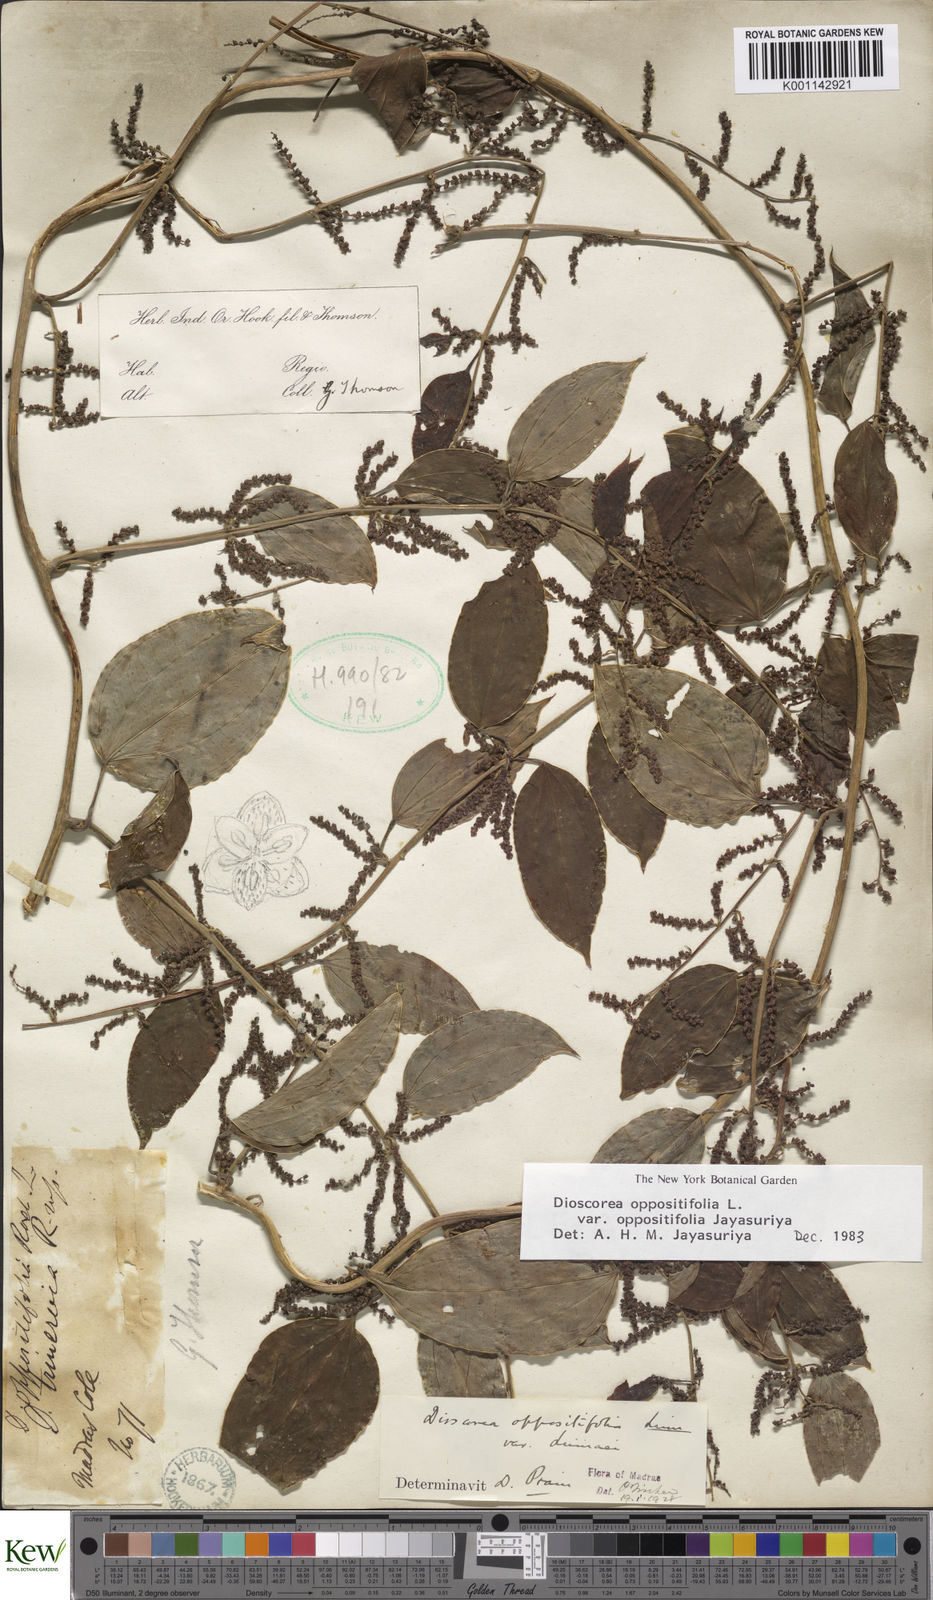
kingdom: Plantae
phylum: Tracheophyta
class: Liliopsida
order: Dioscoreales
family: Dioscoreaceae
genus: Dioscorea
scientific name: Dioscorea oppositifolia
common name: Chinese yam
